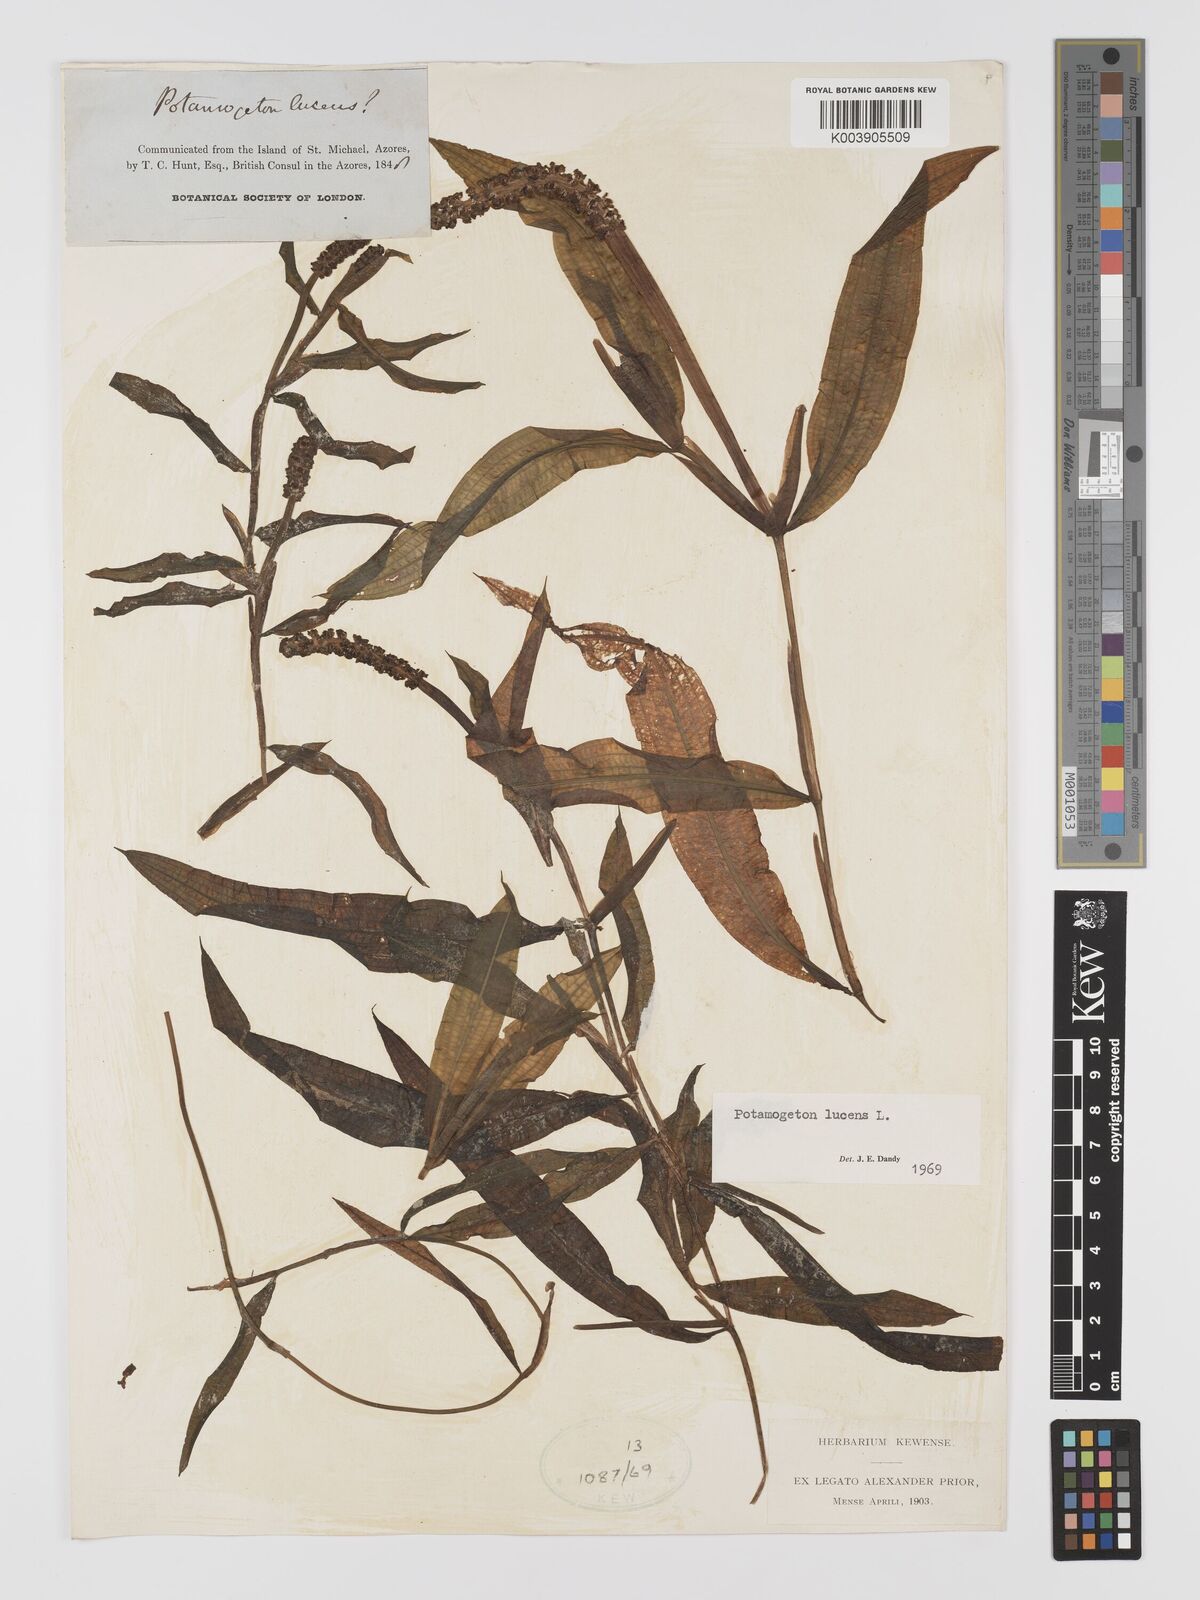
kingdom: Plantae
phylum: Tracheophyta
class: Liliopsida
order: Alismatales
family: Potamogetonaceae
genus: Potamogeton
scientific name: Potamogeton lucens
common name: Shining pondweed
